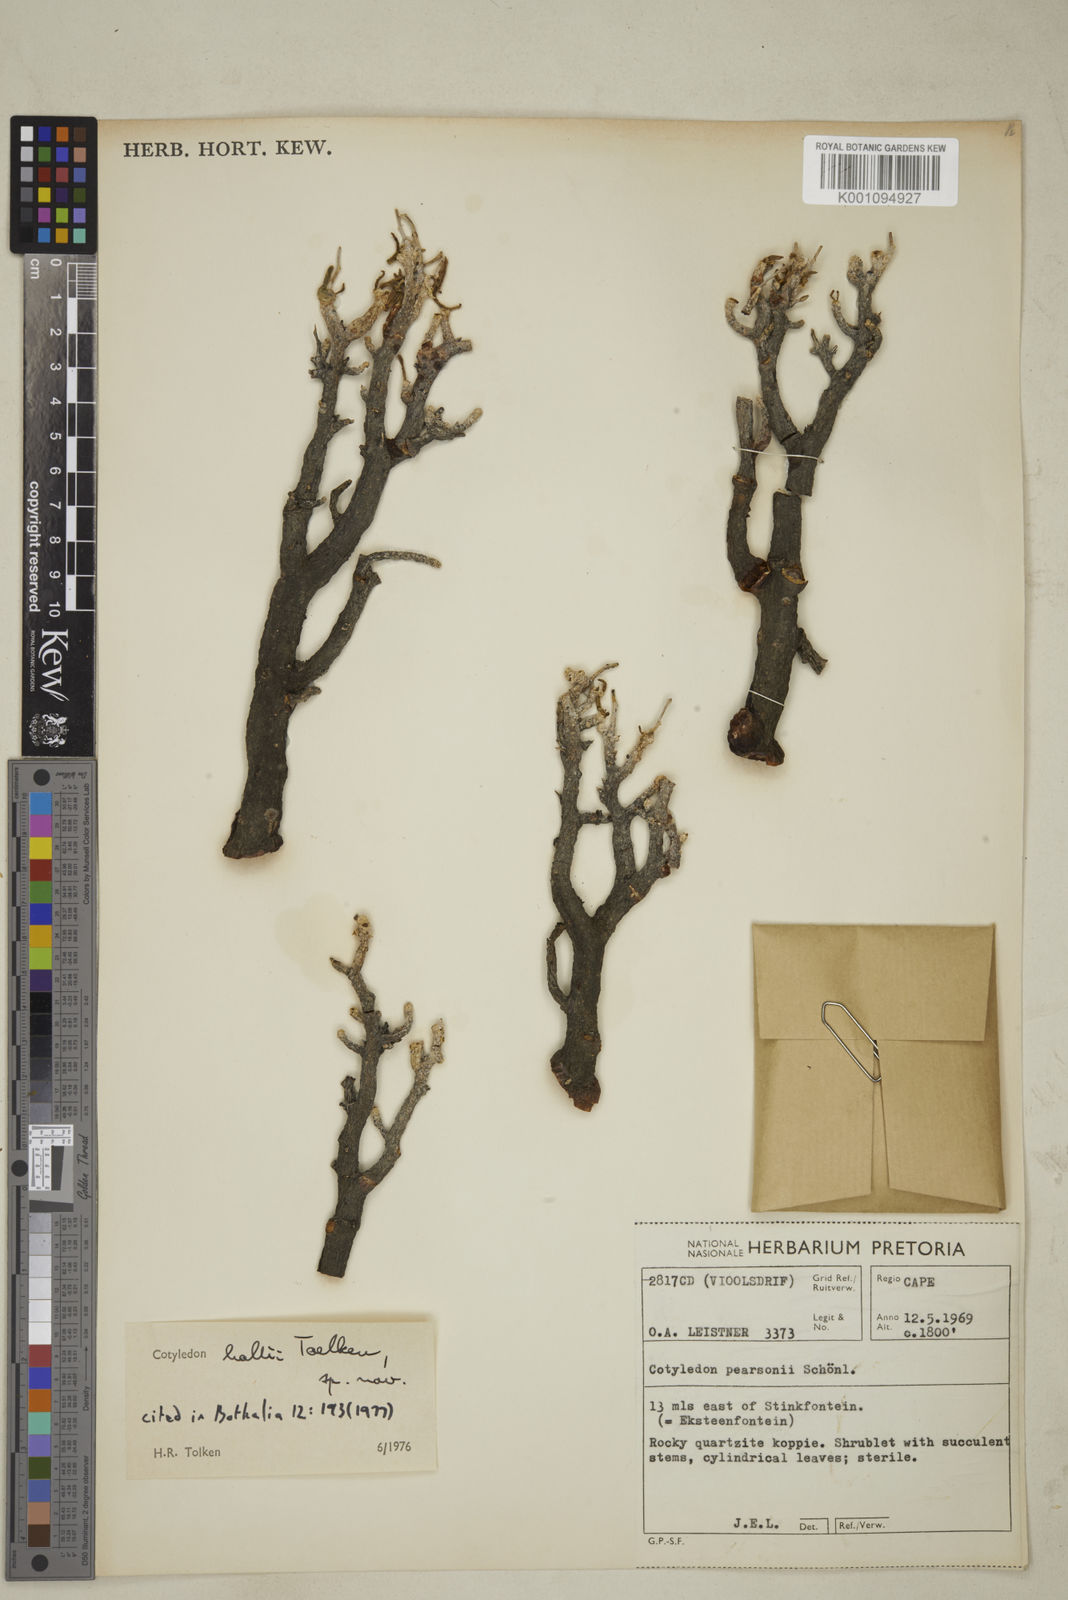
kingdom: Plantae
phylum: Tracheophyta
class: Magnoliopsida
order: Saxifragales
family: Crassulaceae
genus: Tylecodon
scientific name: Tylecodon hallii
